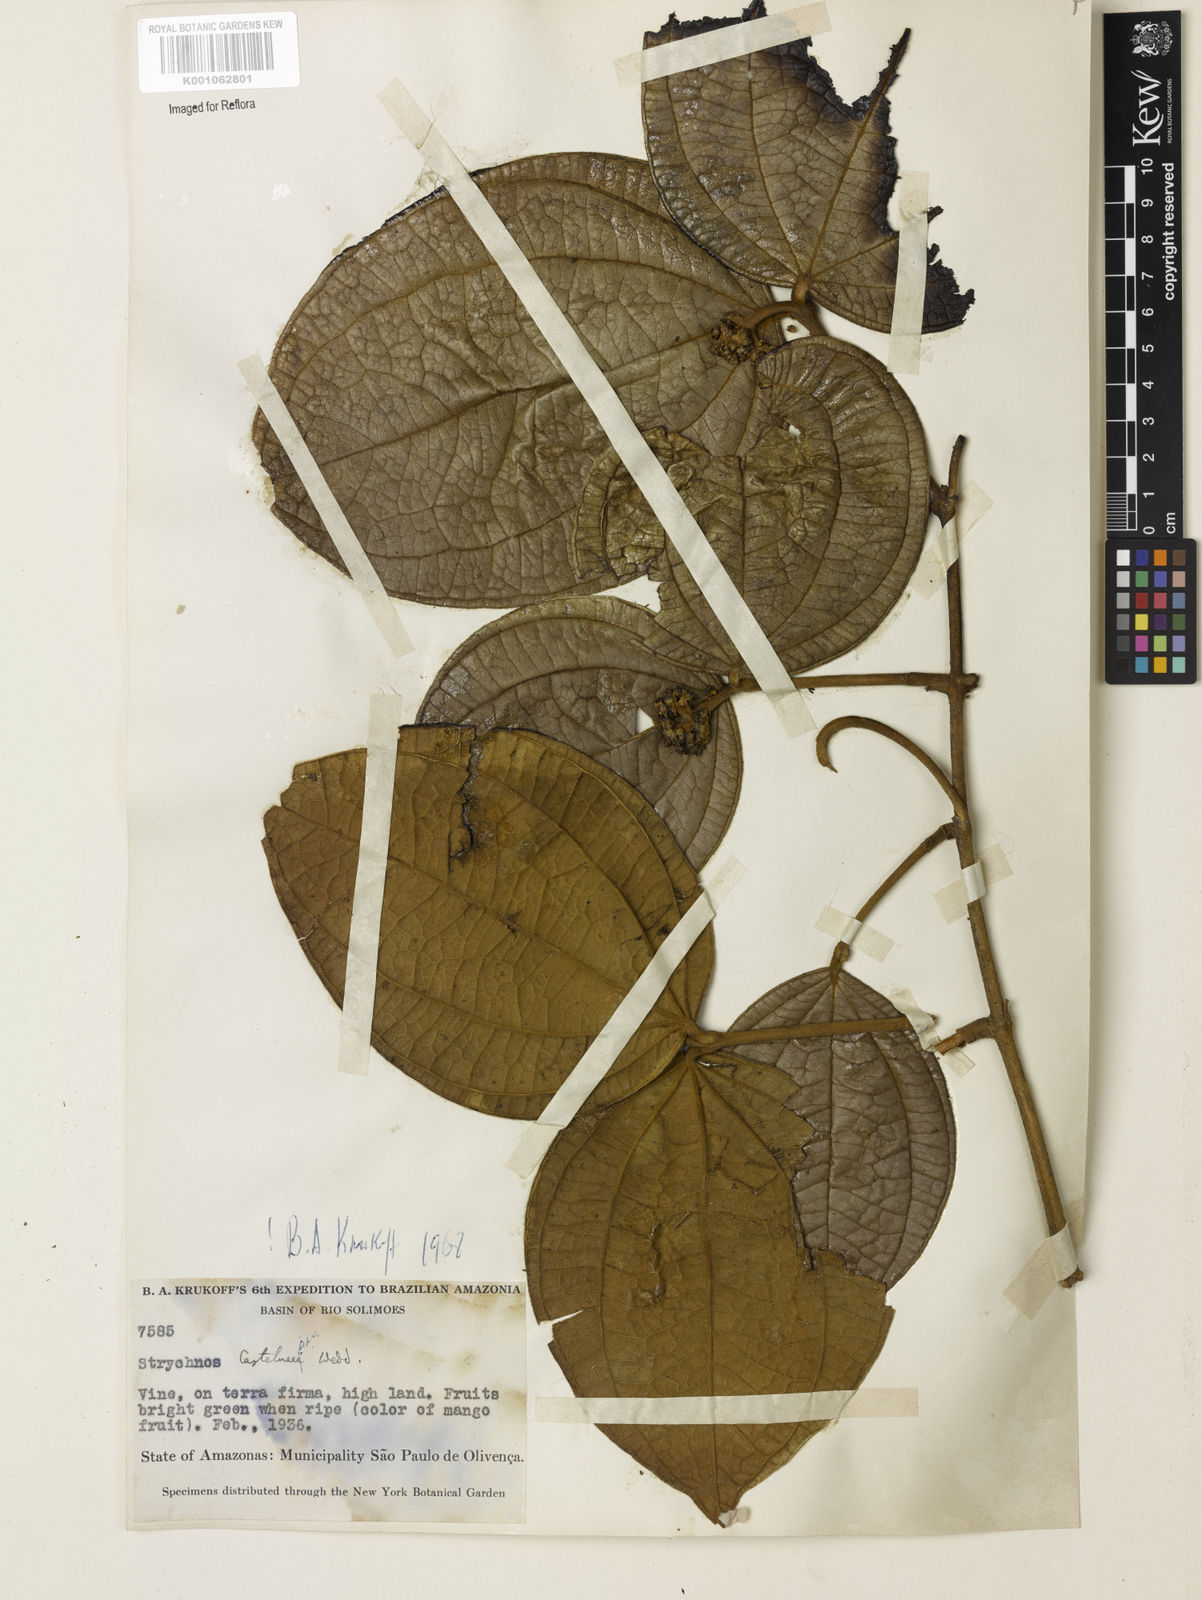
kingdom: Plantae
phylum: Tracheophyta
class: Magnoliopsida
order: Gentianales
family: Loganiaceae
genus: Strychnos
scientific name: Strychnos
